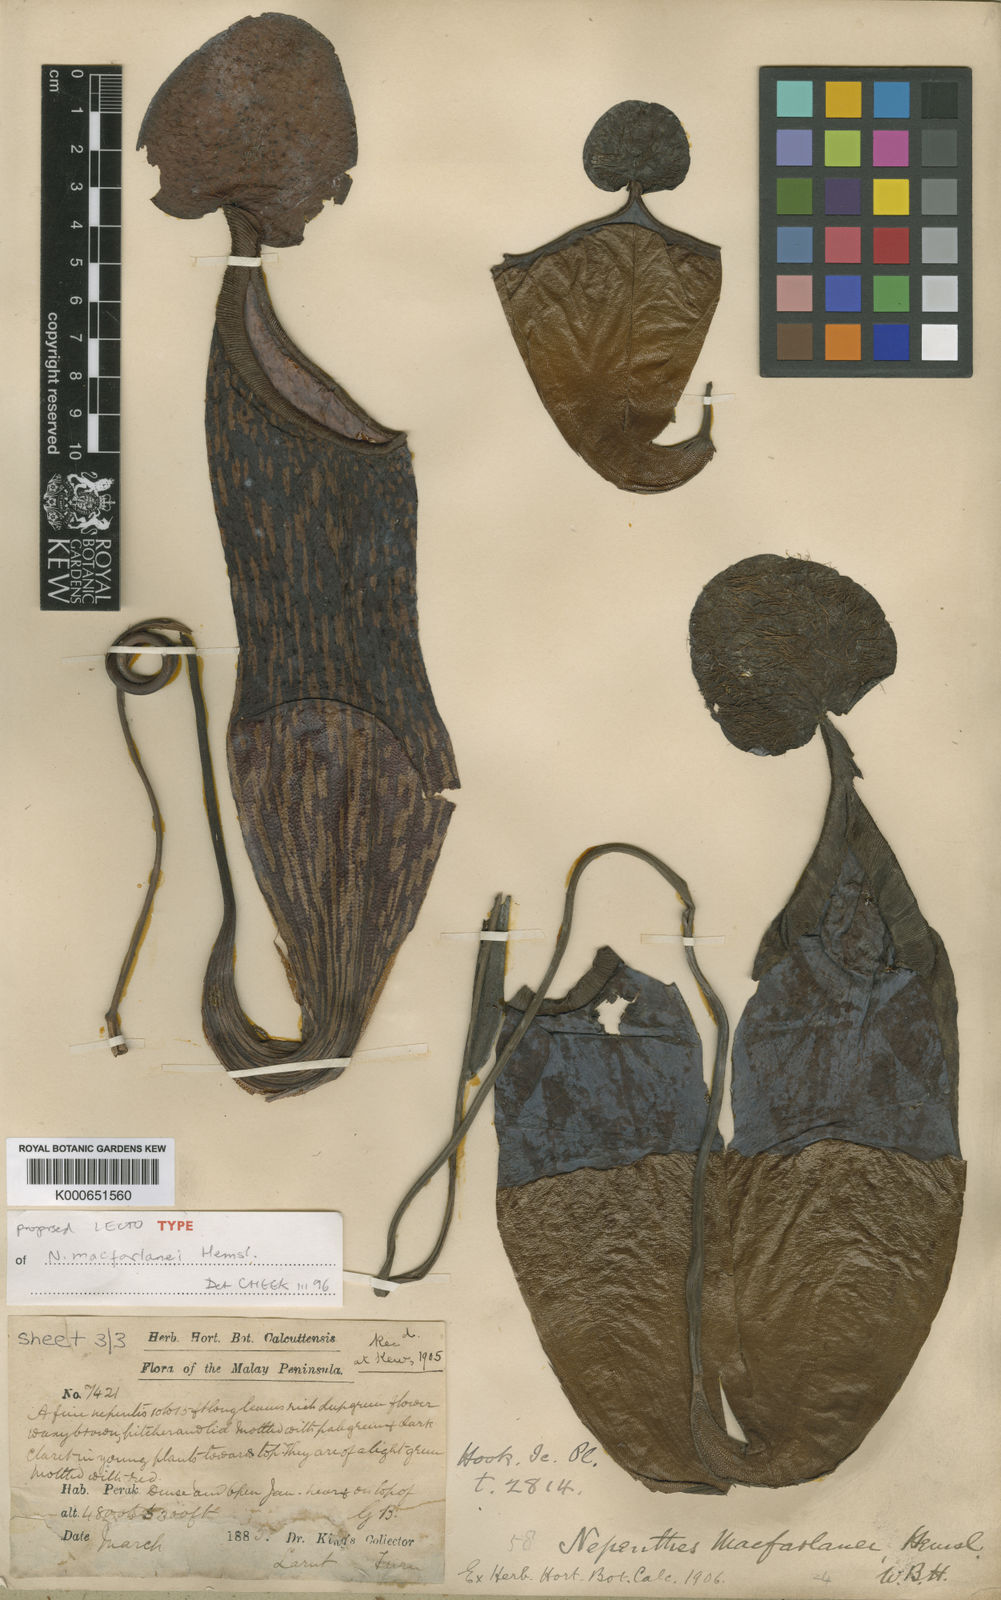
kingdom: Plantae
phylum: Tracheophyta
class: Magnoliopsida
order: Caryophyllales
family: Nepenthaceae
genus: Nepenthes
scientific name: Nepenthes macfarlanei
